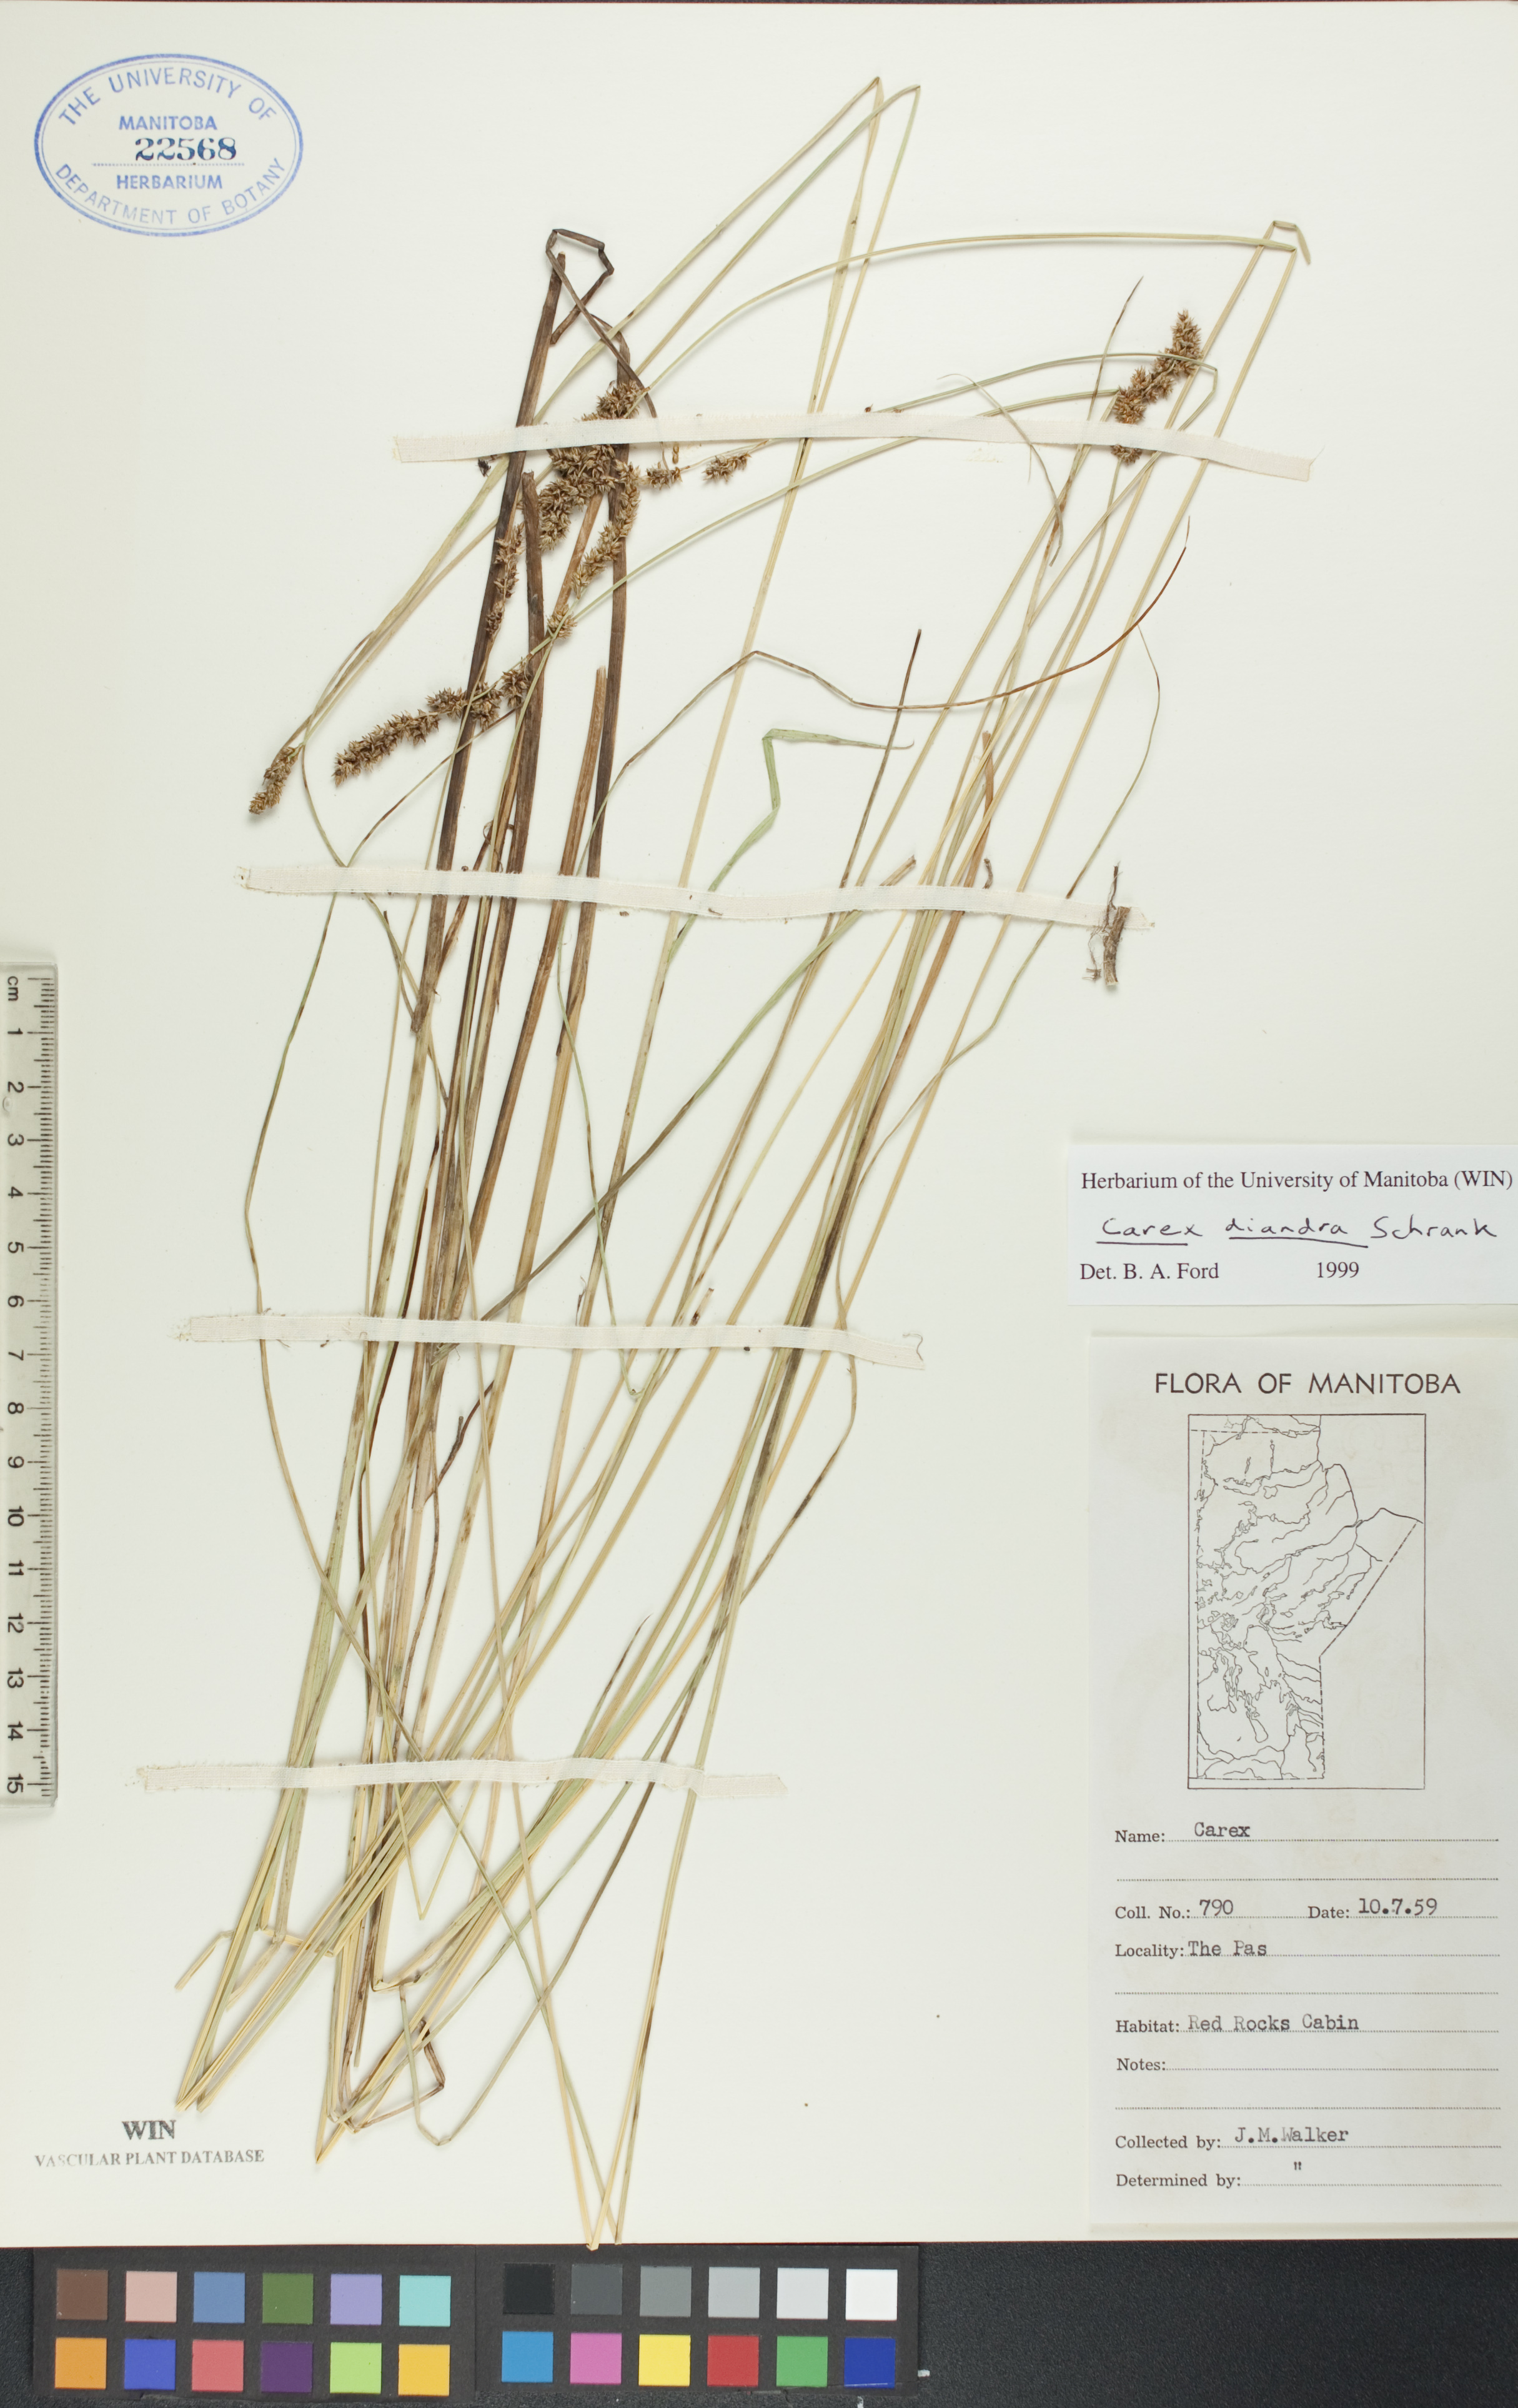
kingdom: Plantae
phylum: Tracheophyta
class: Liliopsida
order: Poales
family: Cyperaceae
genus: Carex
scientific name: Carex diandra
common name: Lesser tussock-sedge
